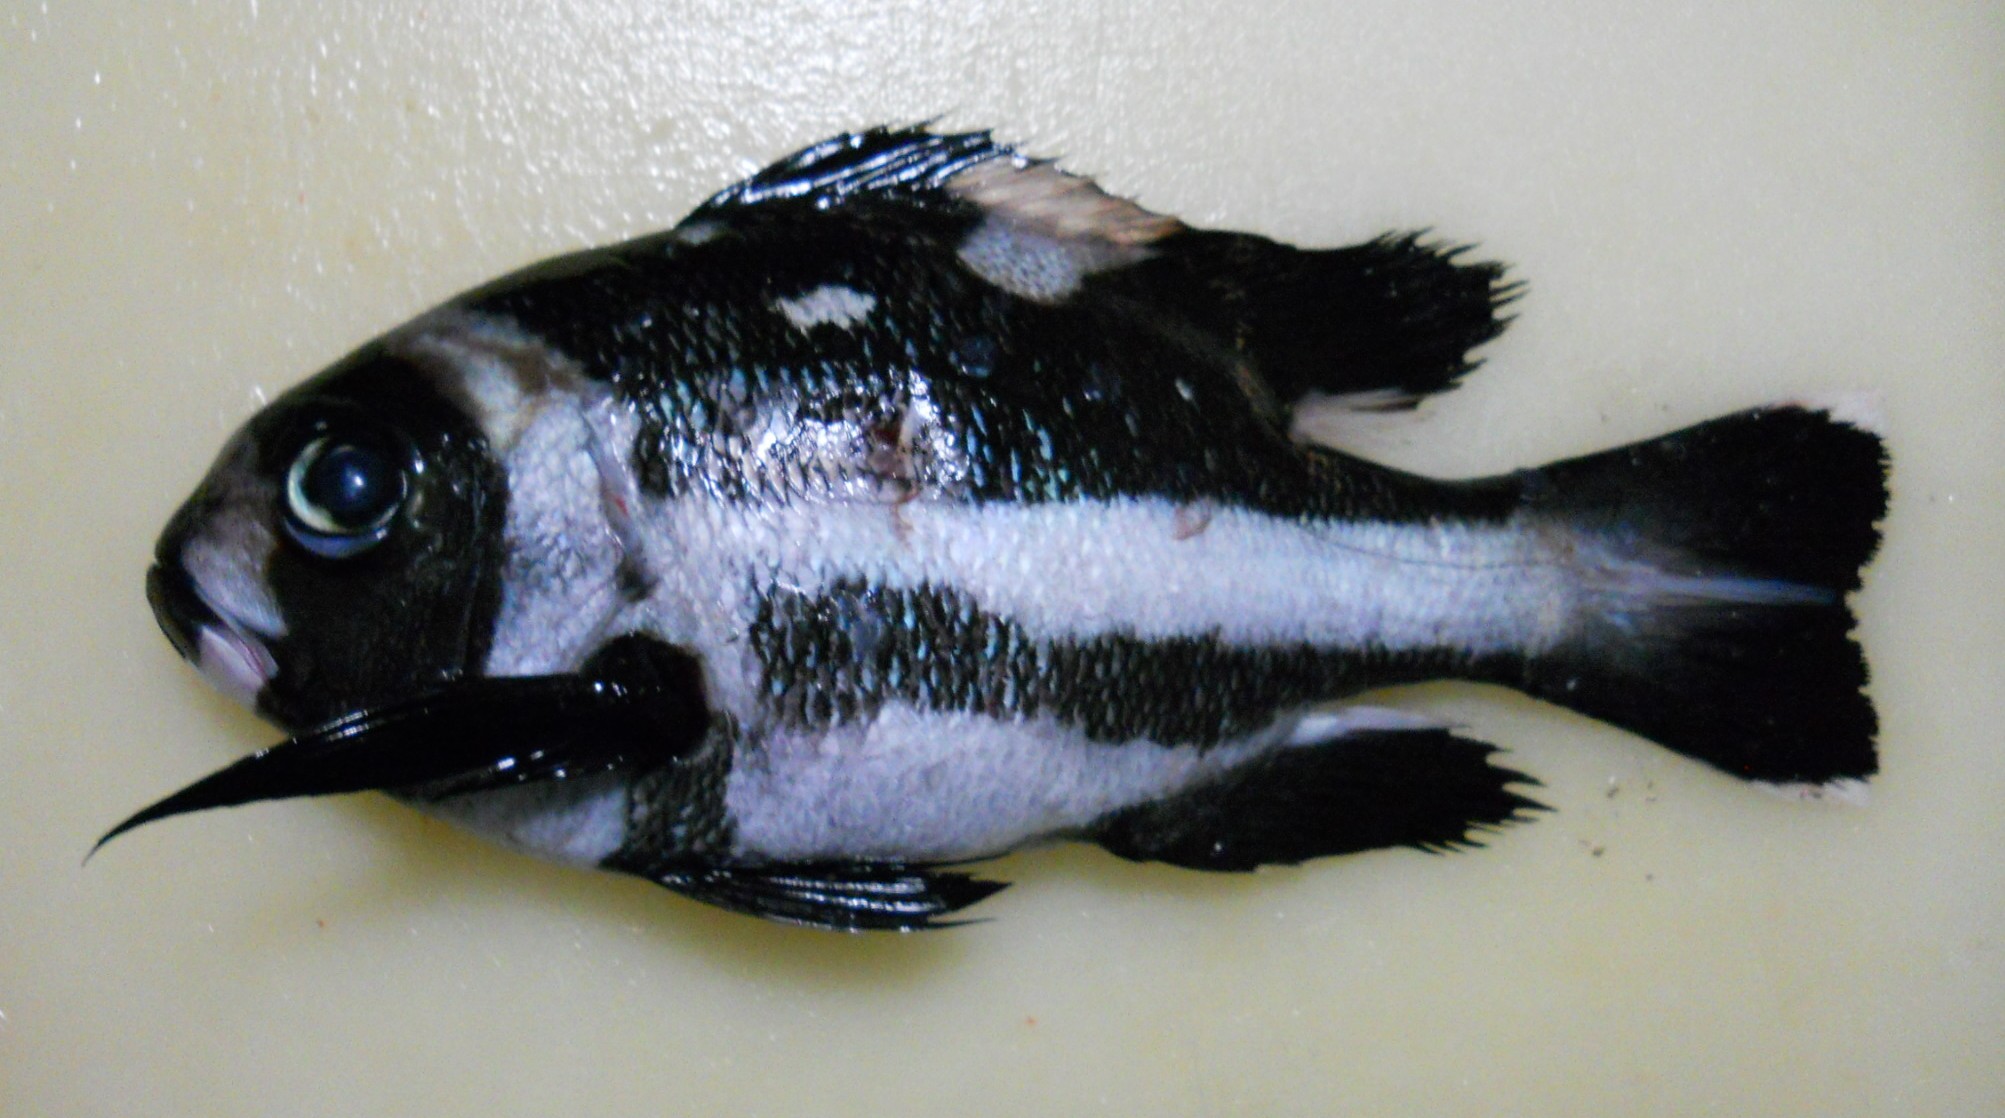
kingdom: Animalia
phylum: Chordata
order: Perciformes
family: Lutjanidae
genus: Macolor
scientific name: Macolor niger
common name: Black snapper
